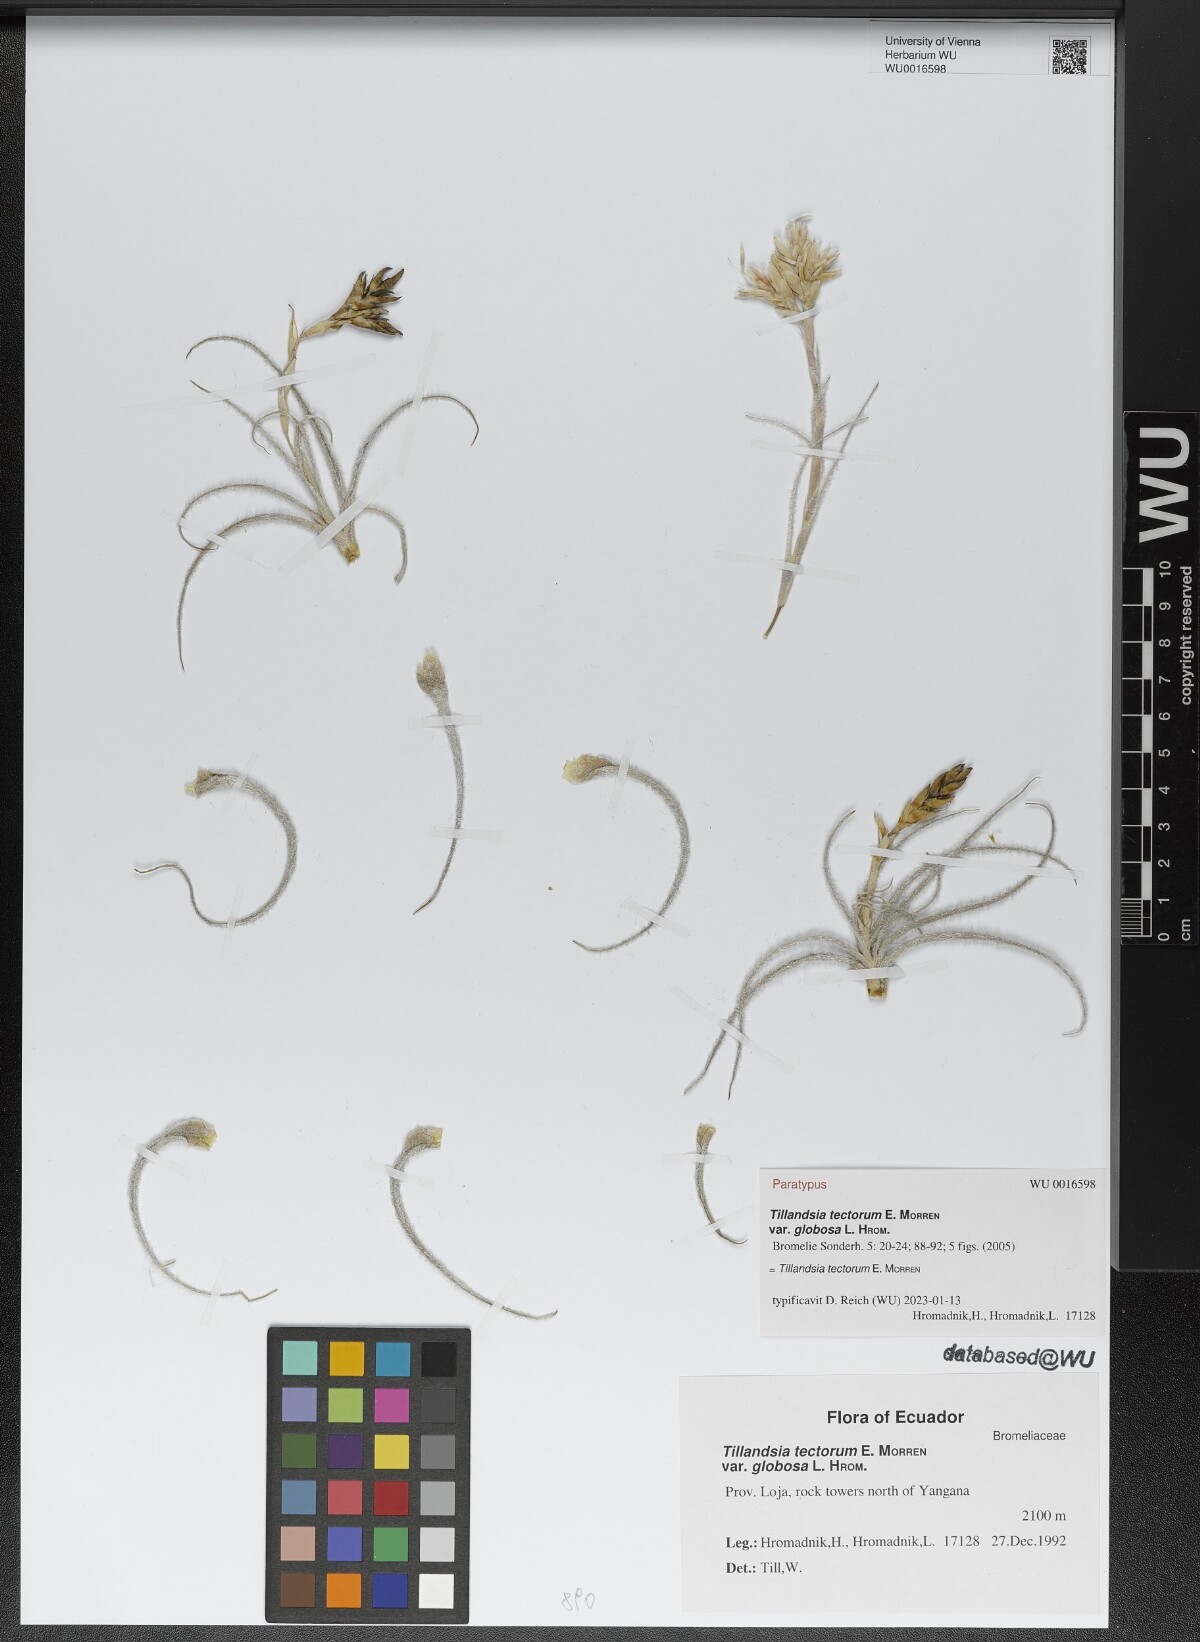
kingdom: Plantae
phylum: Tracheophyta
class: Liliopsida
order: Poales
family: Bromeliaceae
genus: Tillandsia
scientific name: Tillandsia tectorum
